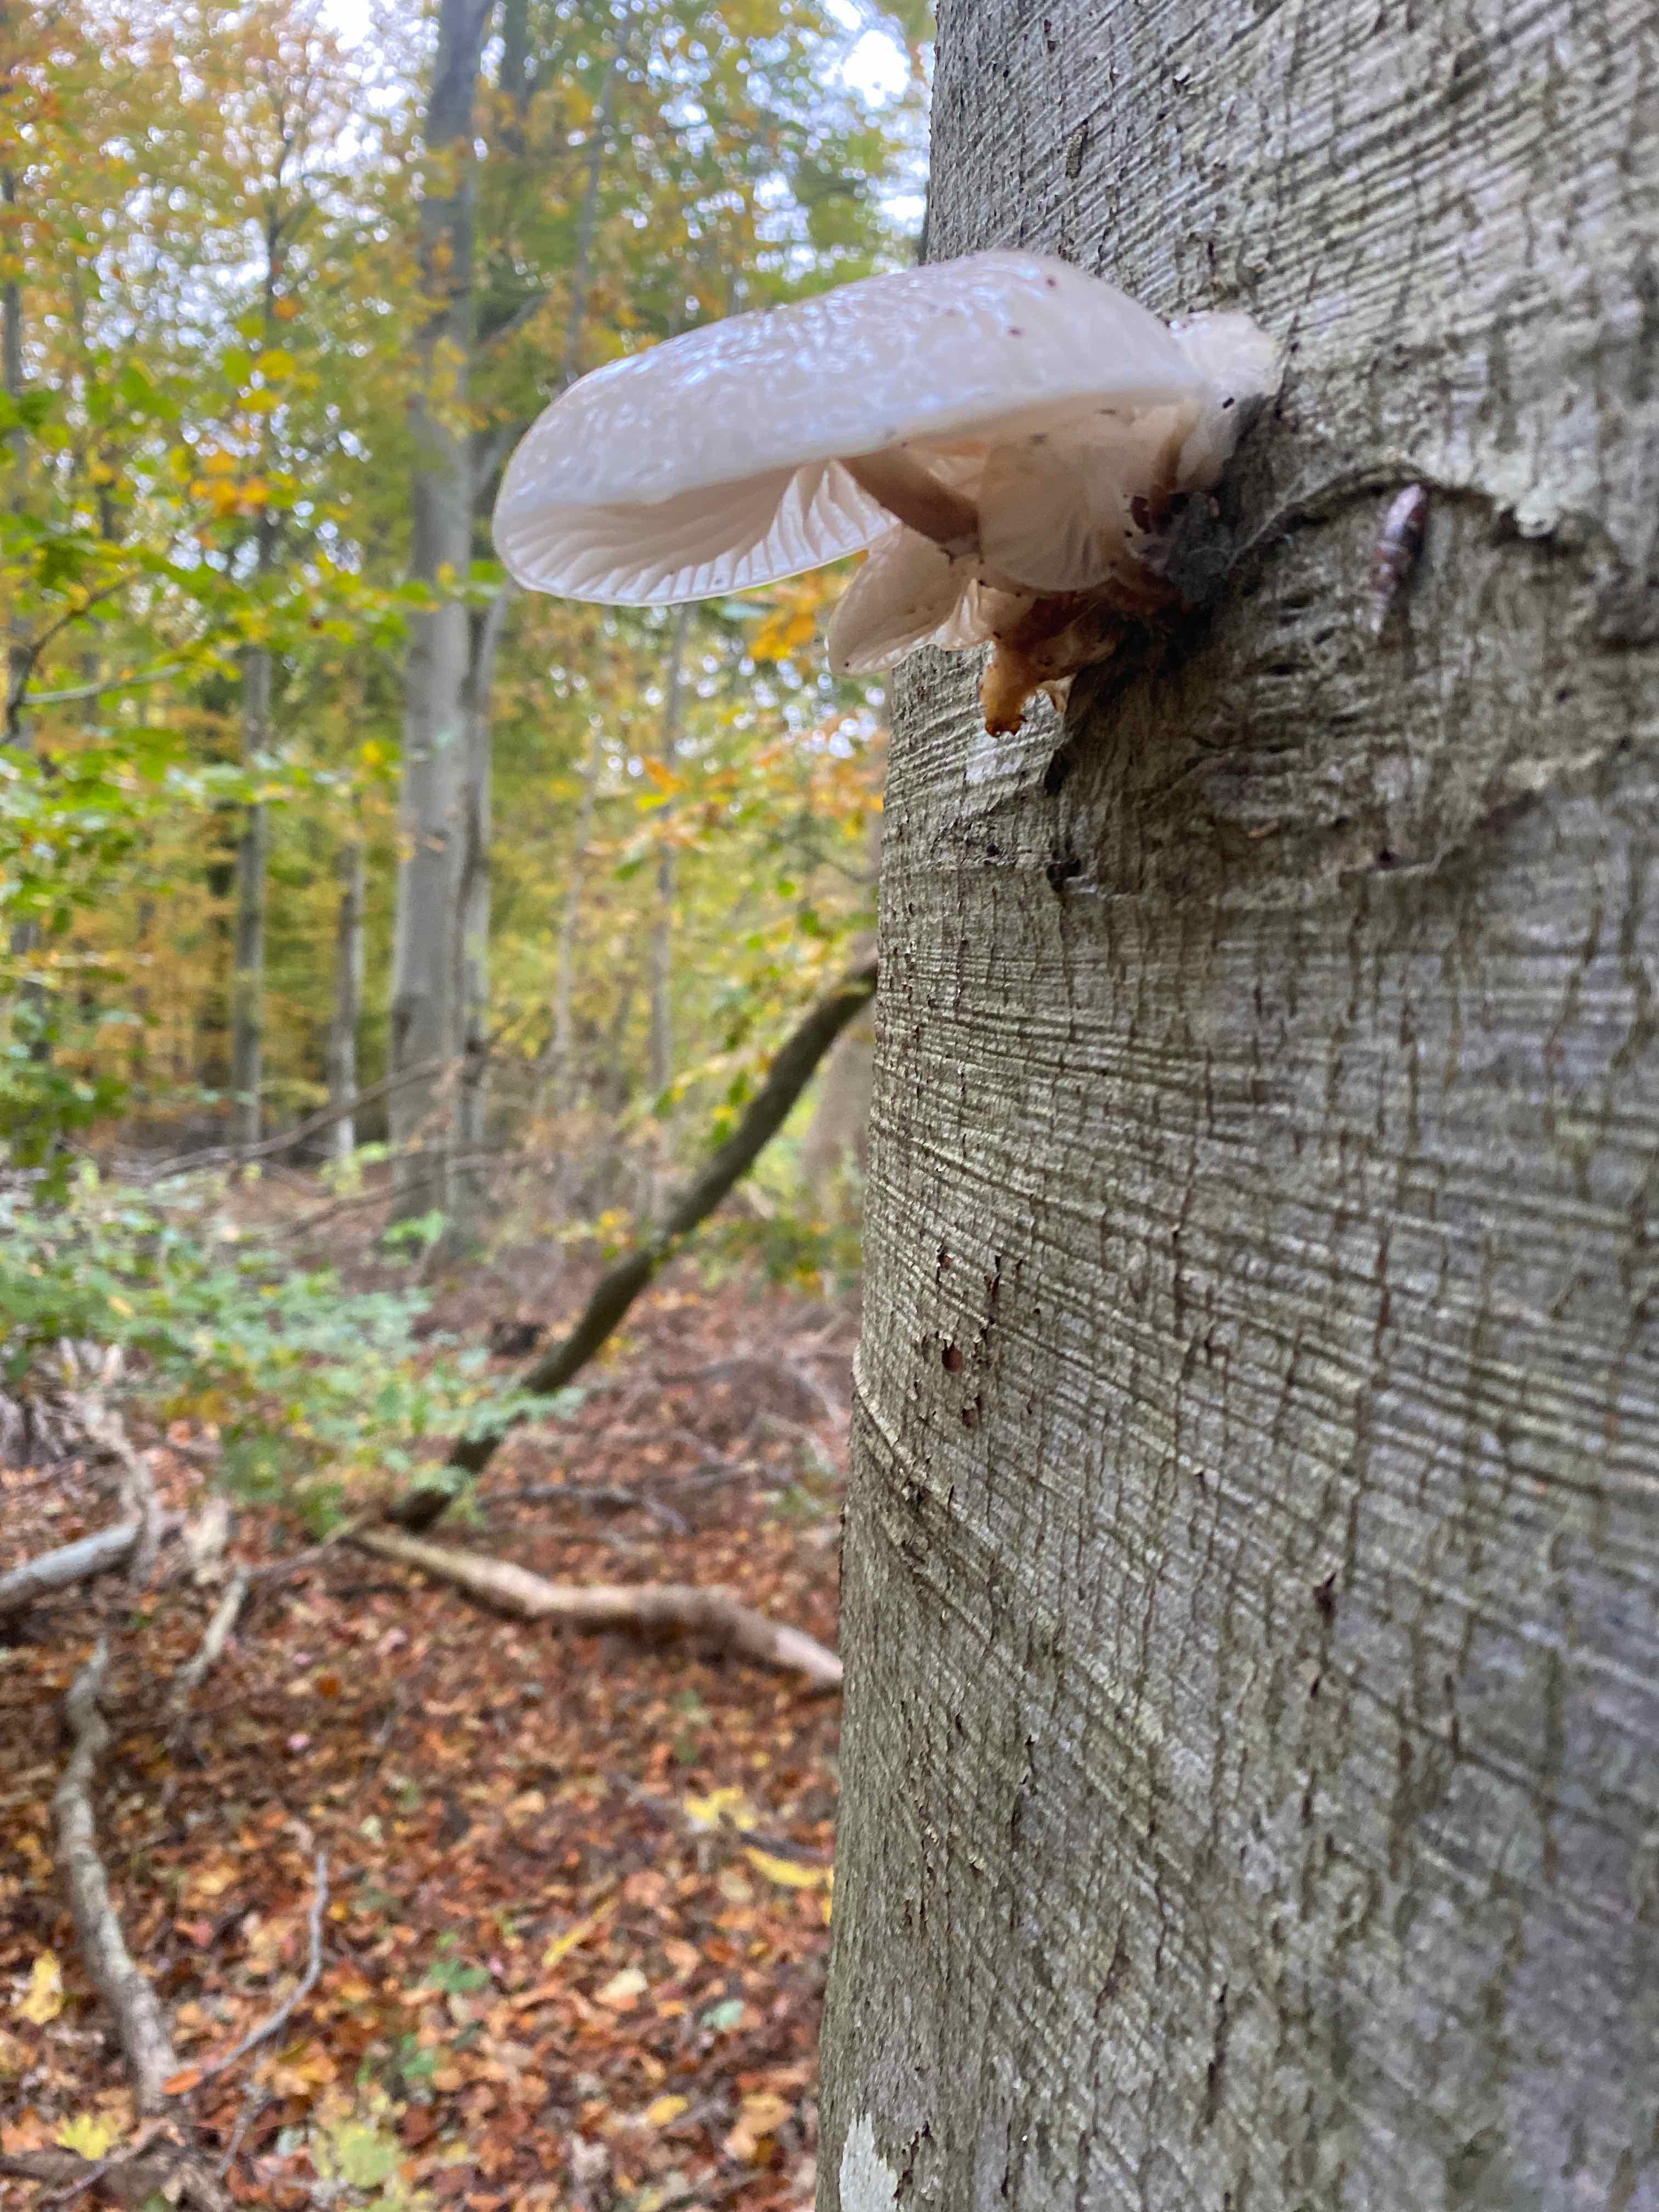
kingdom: Fungi
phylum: Basidiomycota
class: Agaricomycetes
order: Agaricales
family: Physalacriaceae
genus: Mucidula
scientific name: Mucidula mucida
